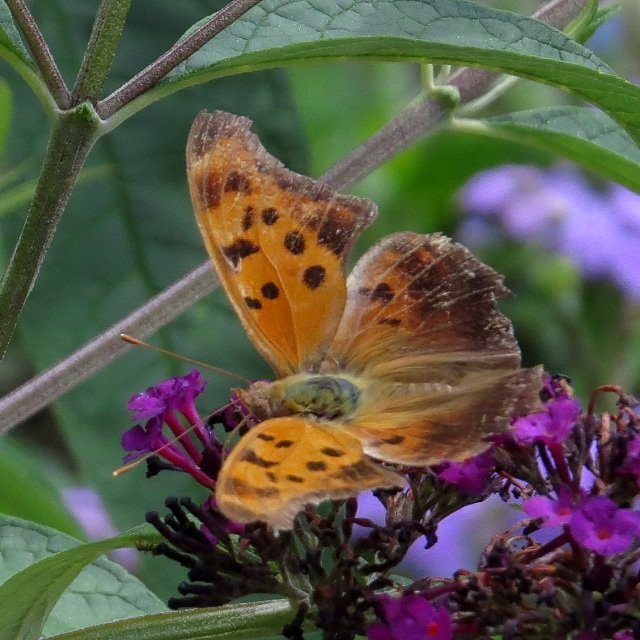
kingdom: Animalia
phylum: Arthropoda
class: Insecta
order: Lepidoptera
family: Nymphalidae
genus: Polygonia
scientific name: Polygonia interrogationis
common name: Question Mark
